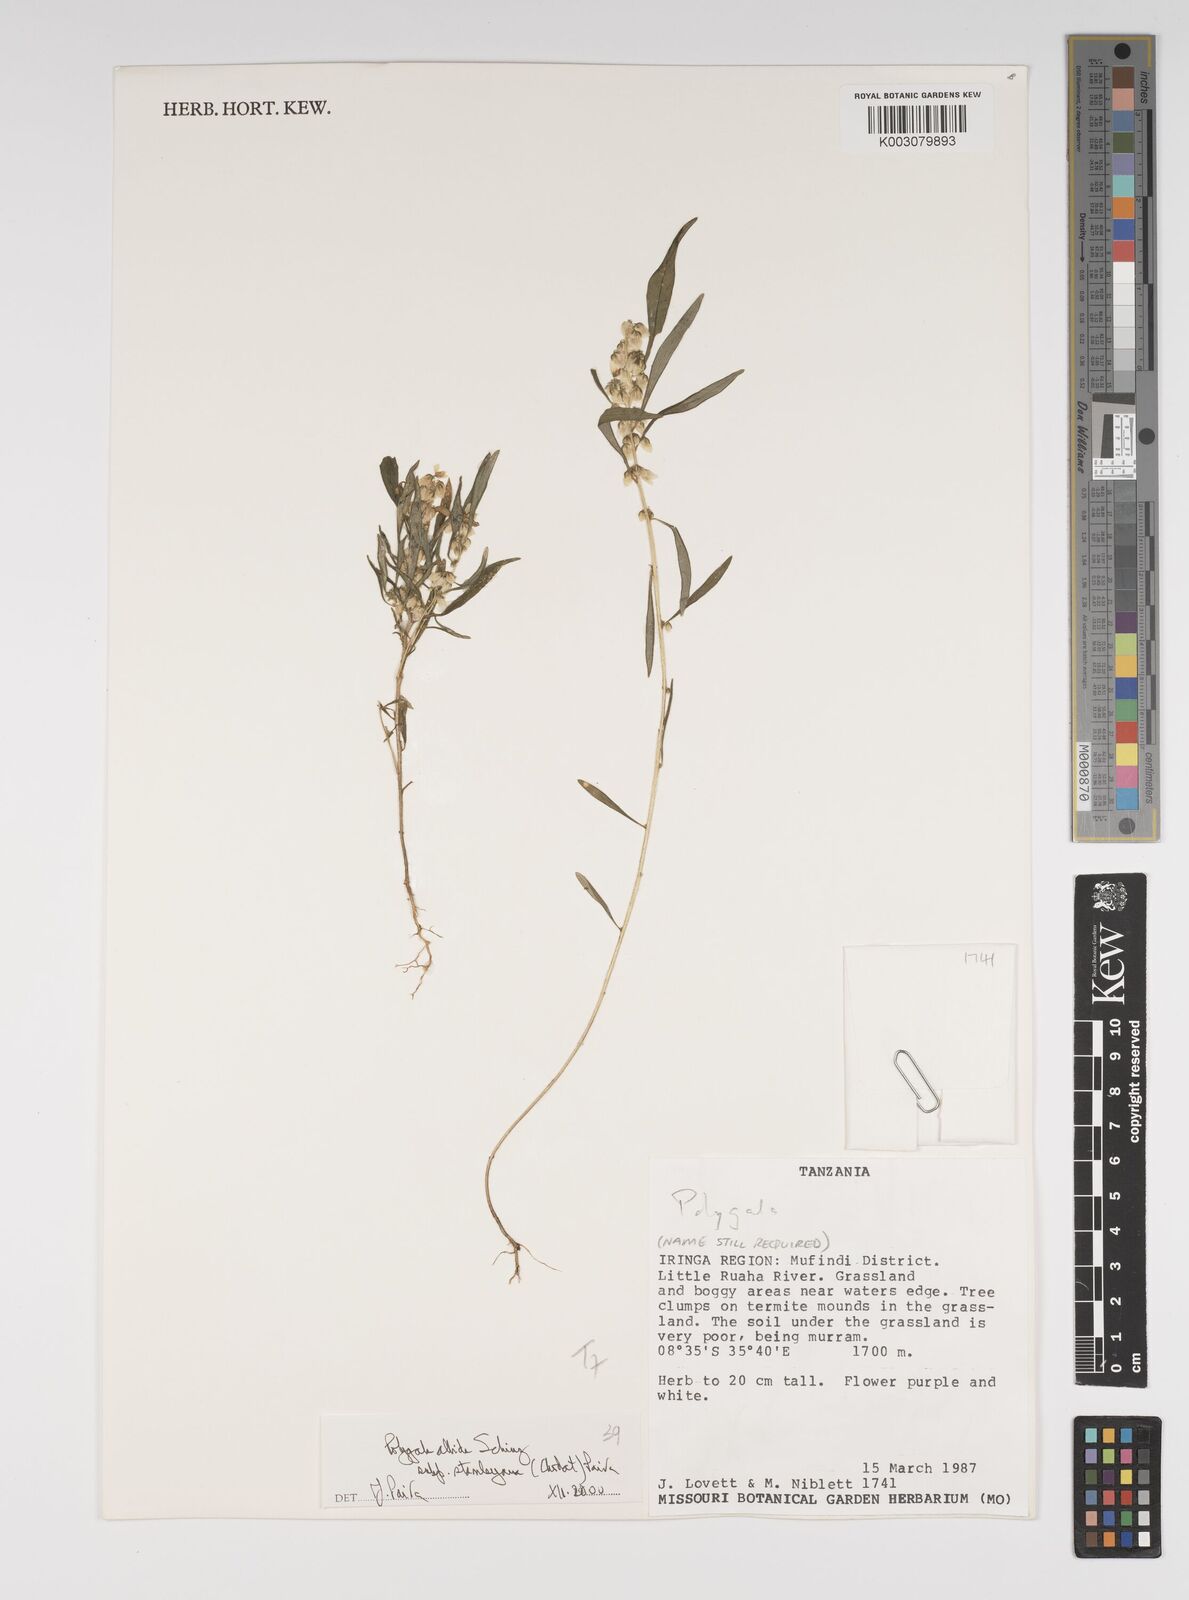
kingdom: Plantae
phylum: Tracheophyta
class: Magnoliopsida
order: Fabales
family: Polygalaceae
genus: Polygala
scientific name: Polygala albida
